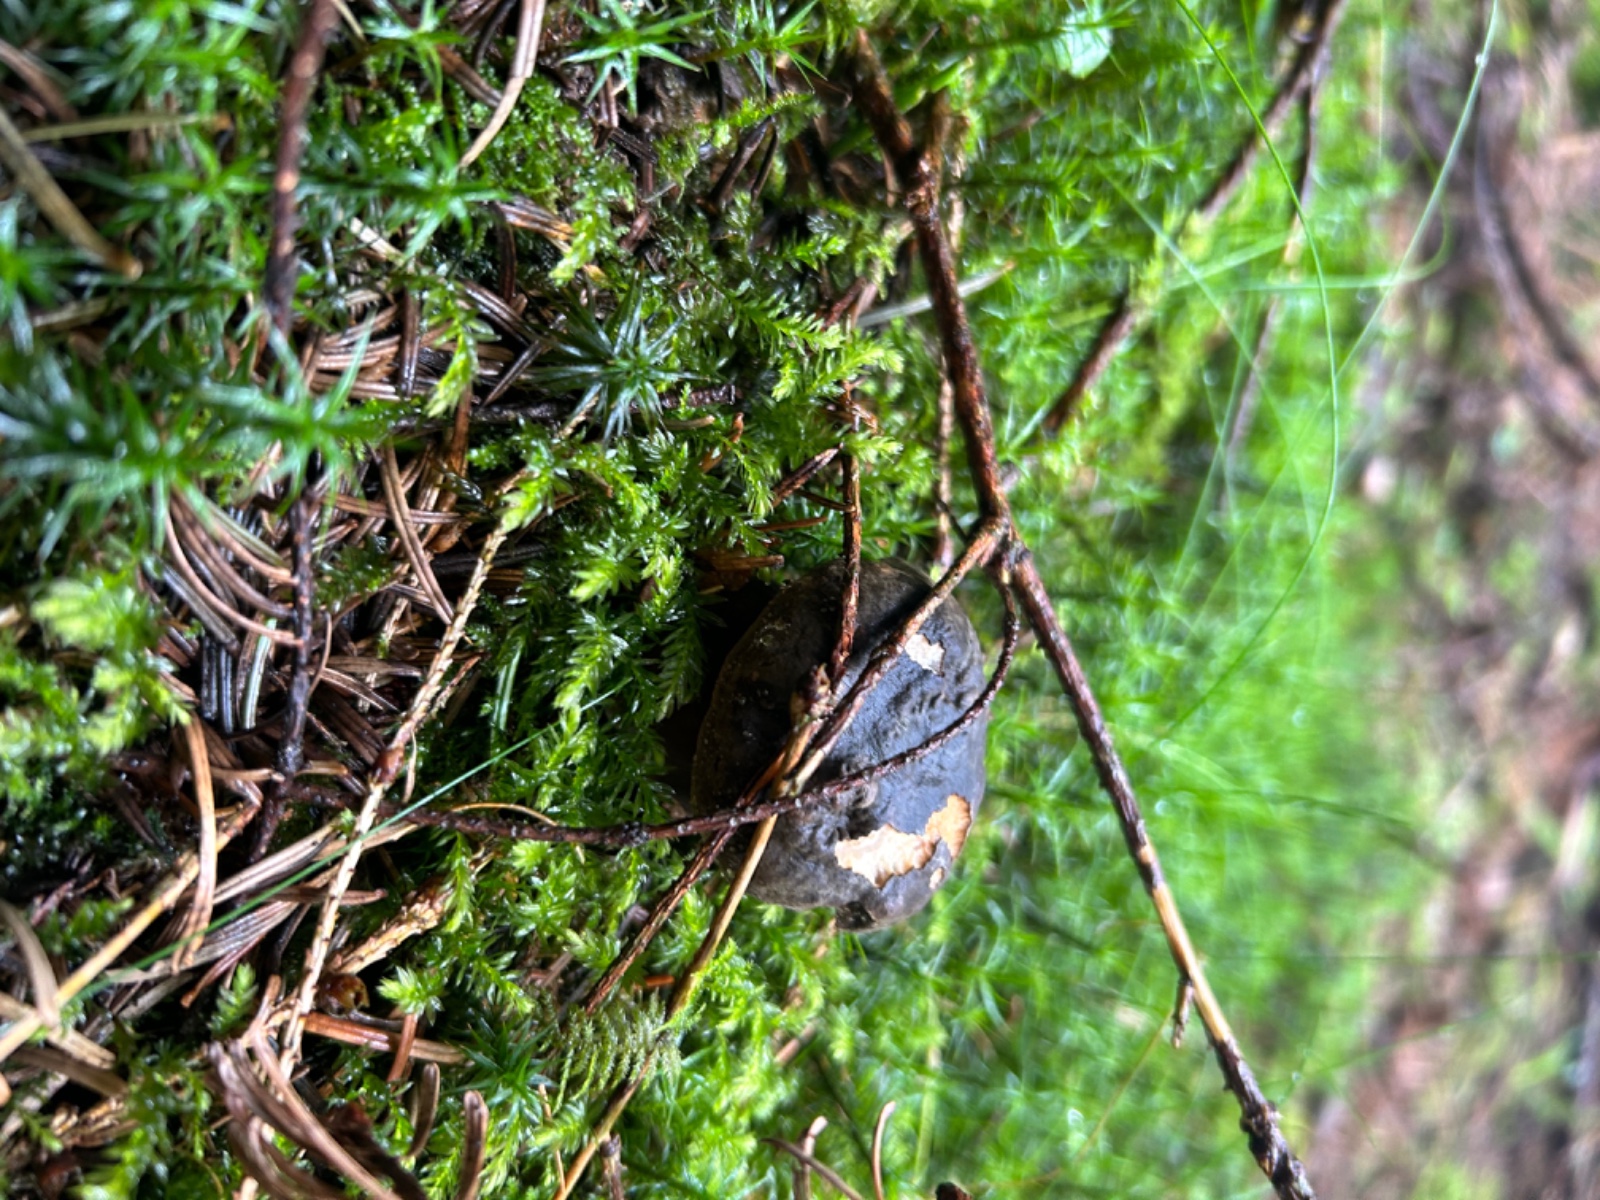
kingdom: Fungi
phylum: Basidiomycota
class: Agaricomycetes
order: Boletales
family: Boletaceae
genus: Porphyrellus
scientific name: Porphyrellus porphyrosporus
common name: sodrørhat
